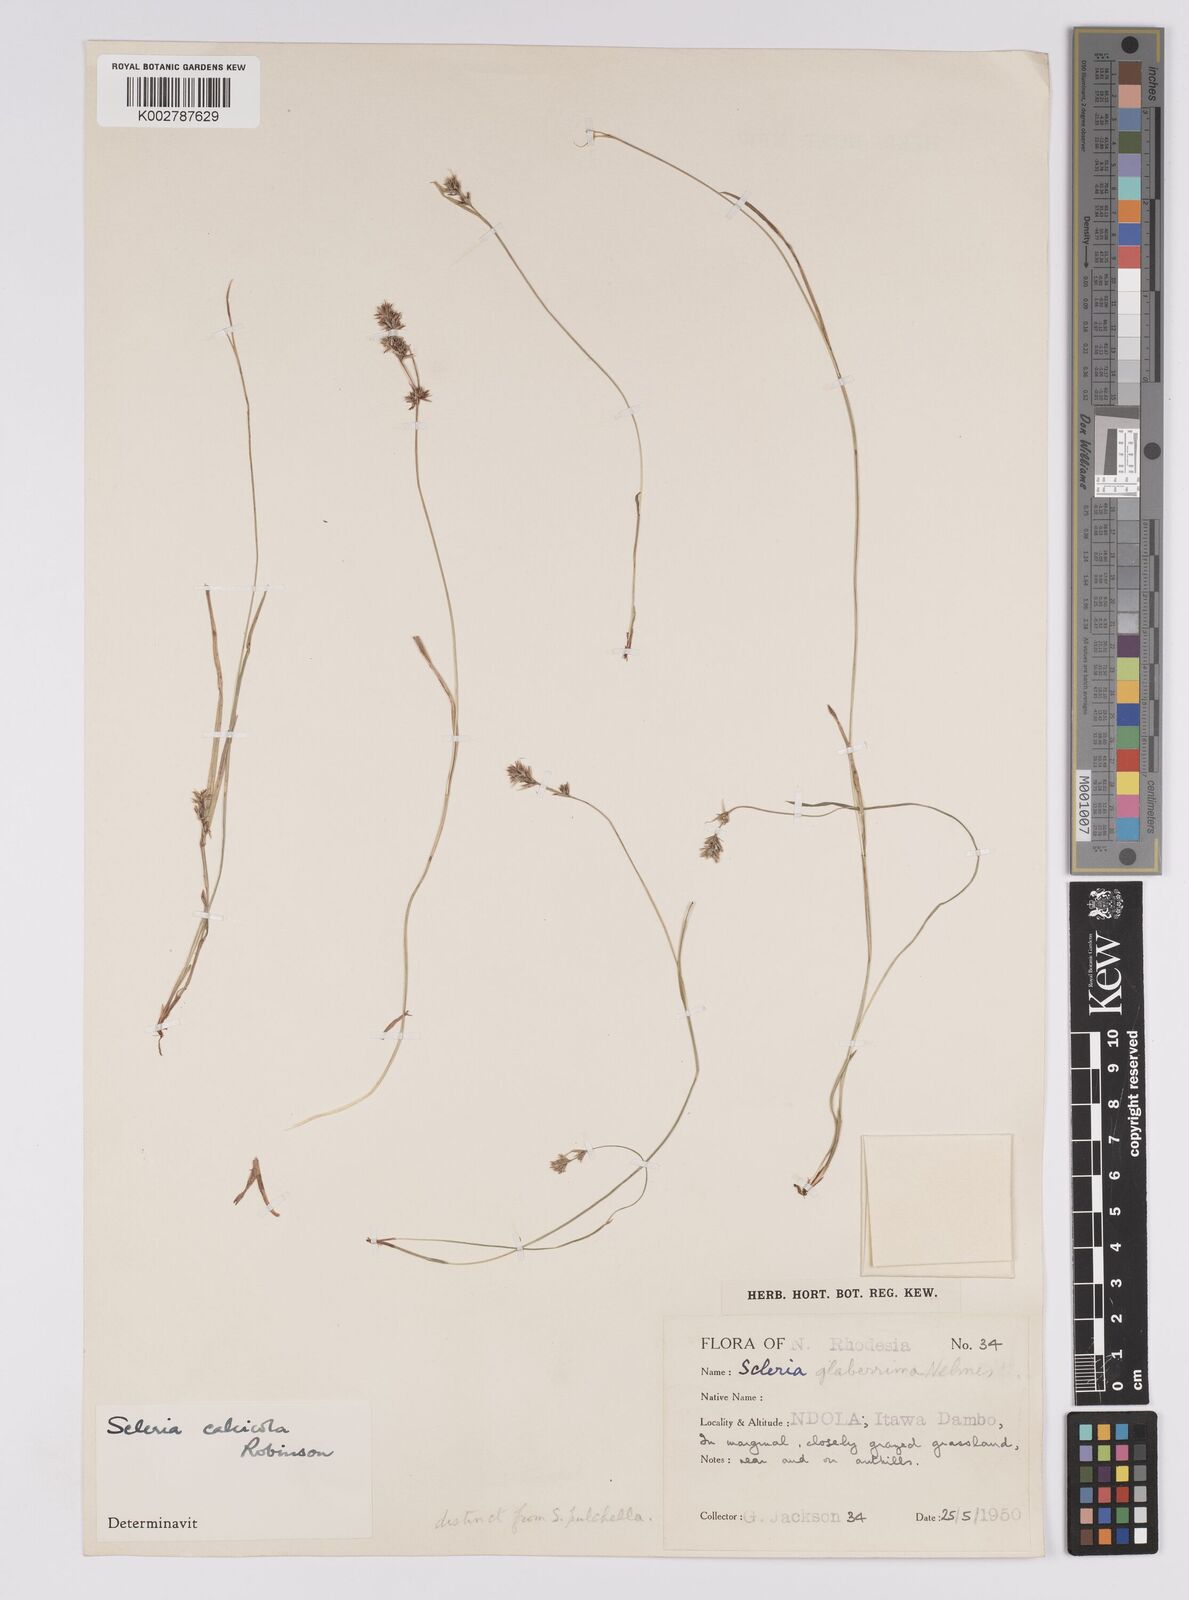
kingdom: Plantae
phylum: Tracheophyta
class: Liliopsida
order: Poales
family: Cyperaceae
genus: Scleria
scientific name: Scleria calcicola
